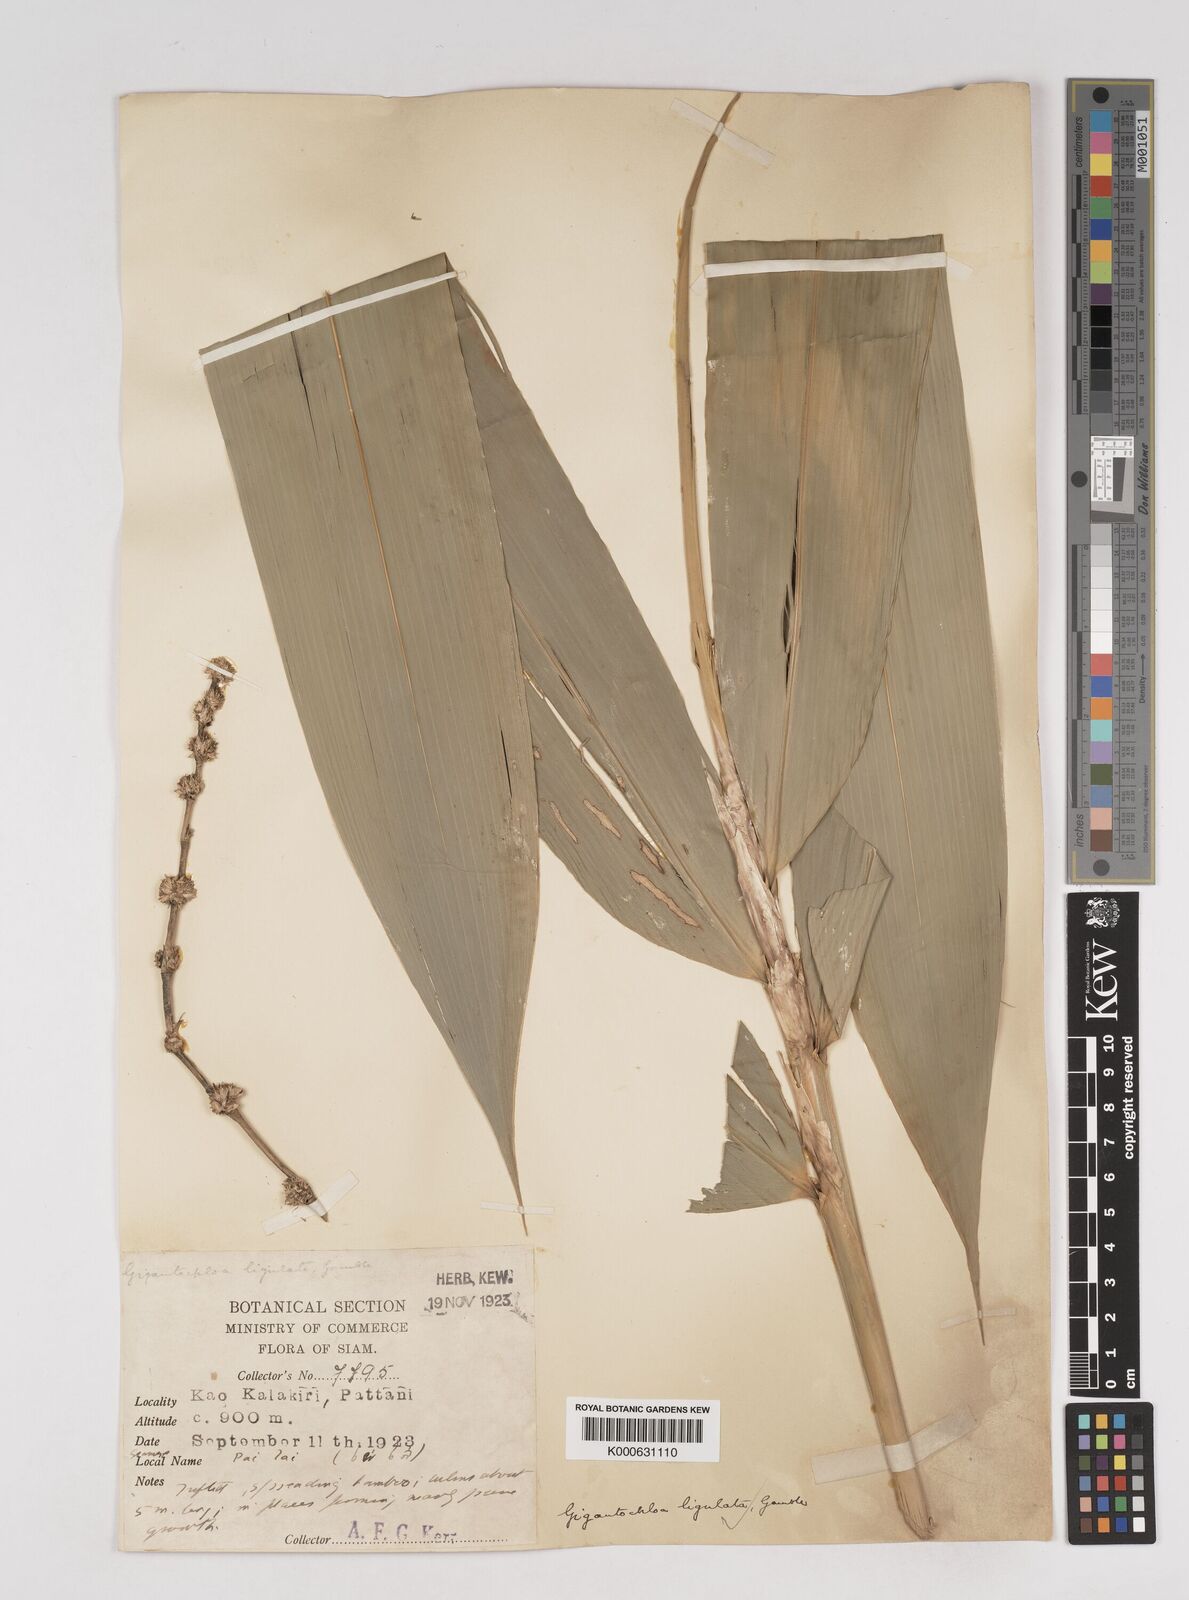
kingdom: Plantae
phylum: Tracheophyta
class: Liliopsida
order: Poales
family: Poaceae
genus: Gigantochloa
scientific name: Gigantochloa ligulata
